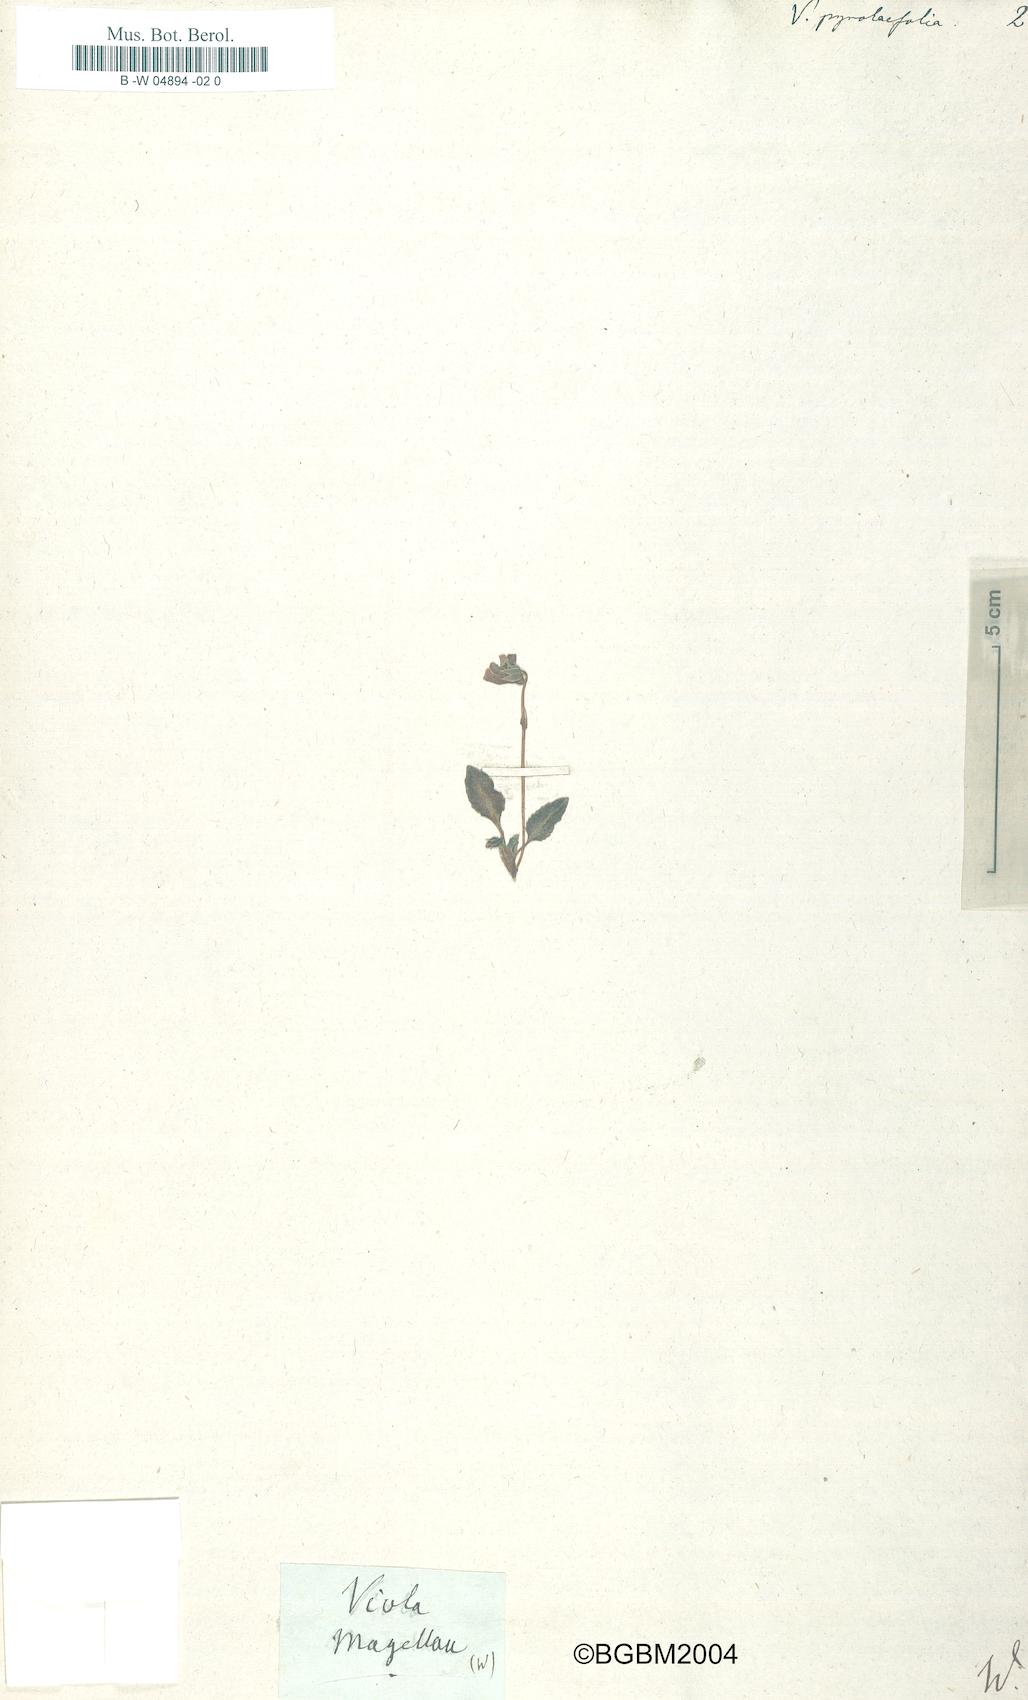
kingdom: Plantae
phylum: Tracheophyta
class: Magnoliopsida
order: Malpighiales
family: Violaceae
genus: Viola
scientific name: Viola maculata
